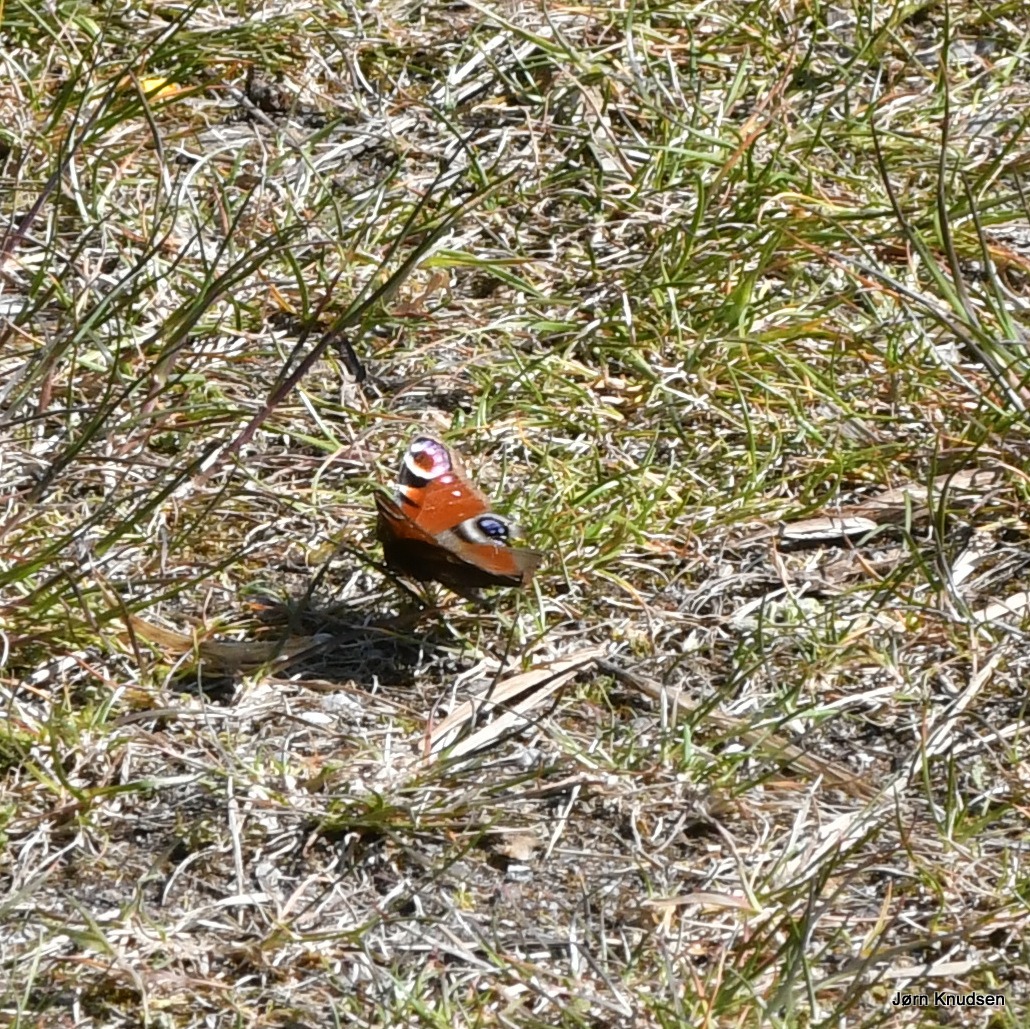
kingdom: Animalia
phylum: Arthropoda
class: Insecta
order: Lepidoptera
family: Nymphalidae
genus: Aglais
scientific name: Aglais io
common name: Dagpåfugleøje
